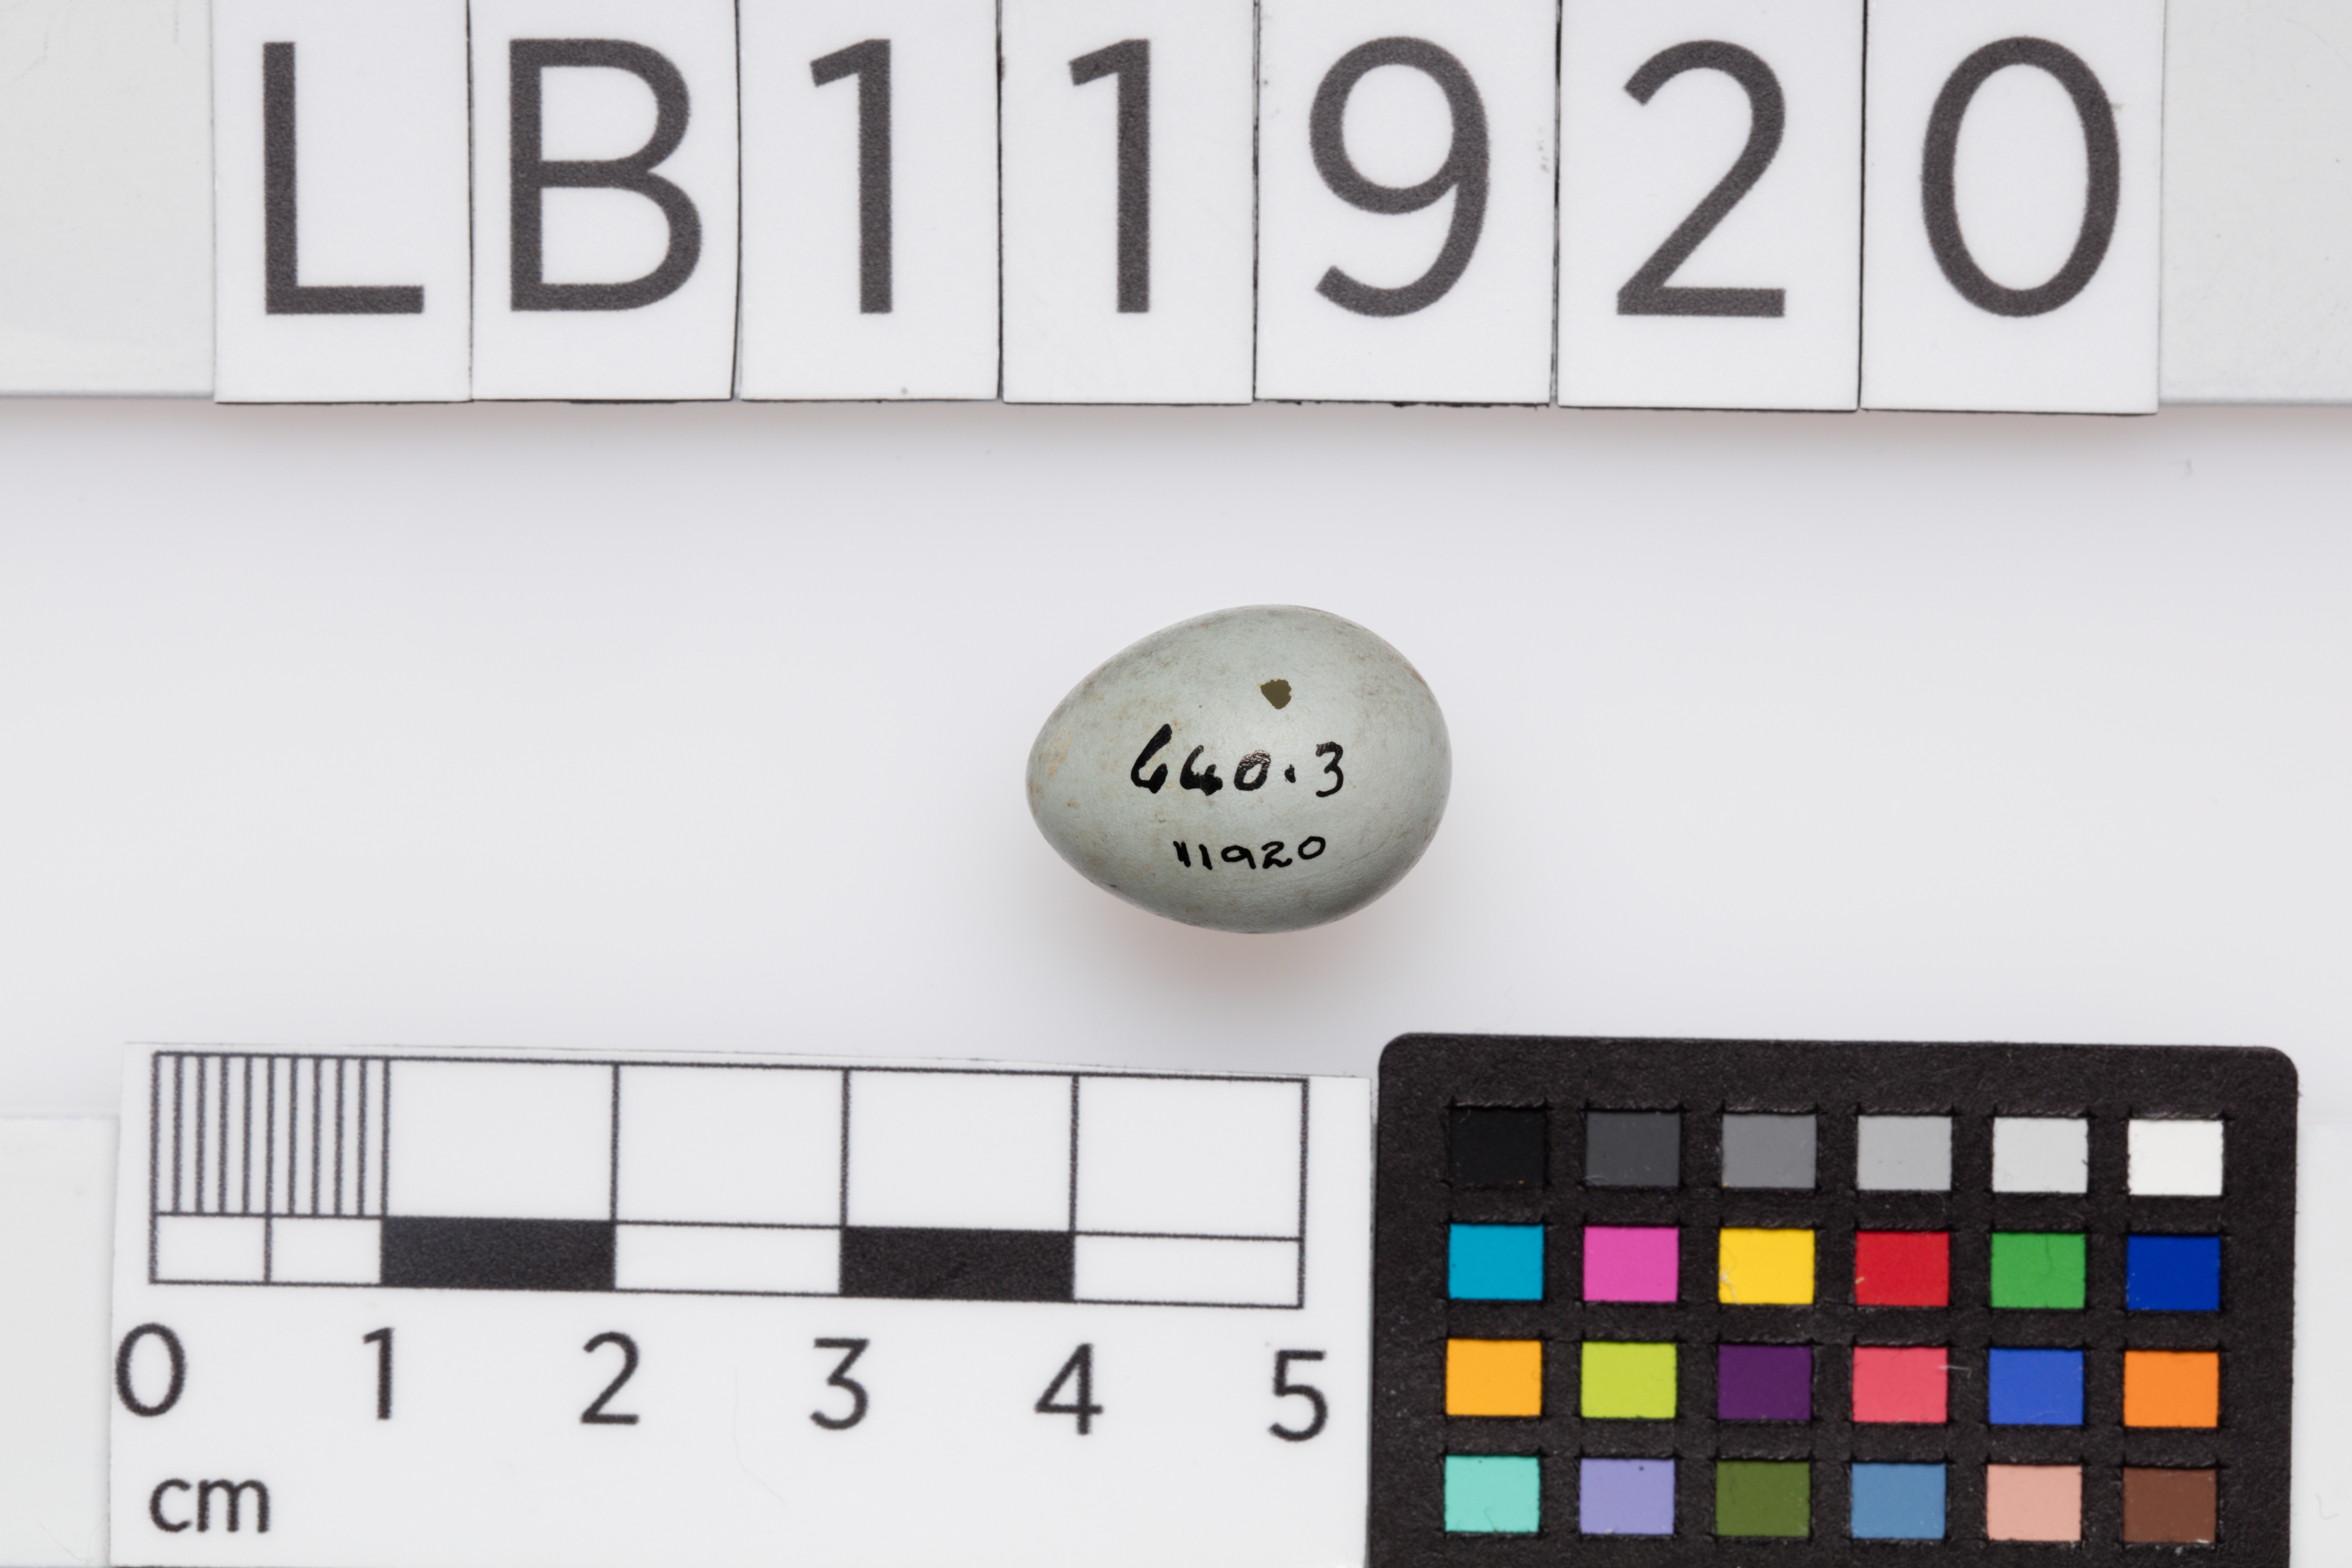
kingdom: Animalia
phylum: Chordata
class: Aves
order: Passeriformes
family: Muscicapidae
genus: Saxicola
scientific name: Saxicola torquatus
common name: African stonechat
